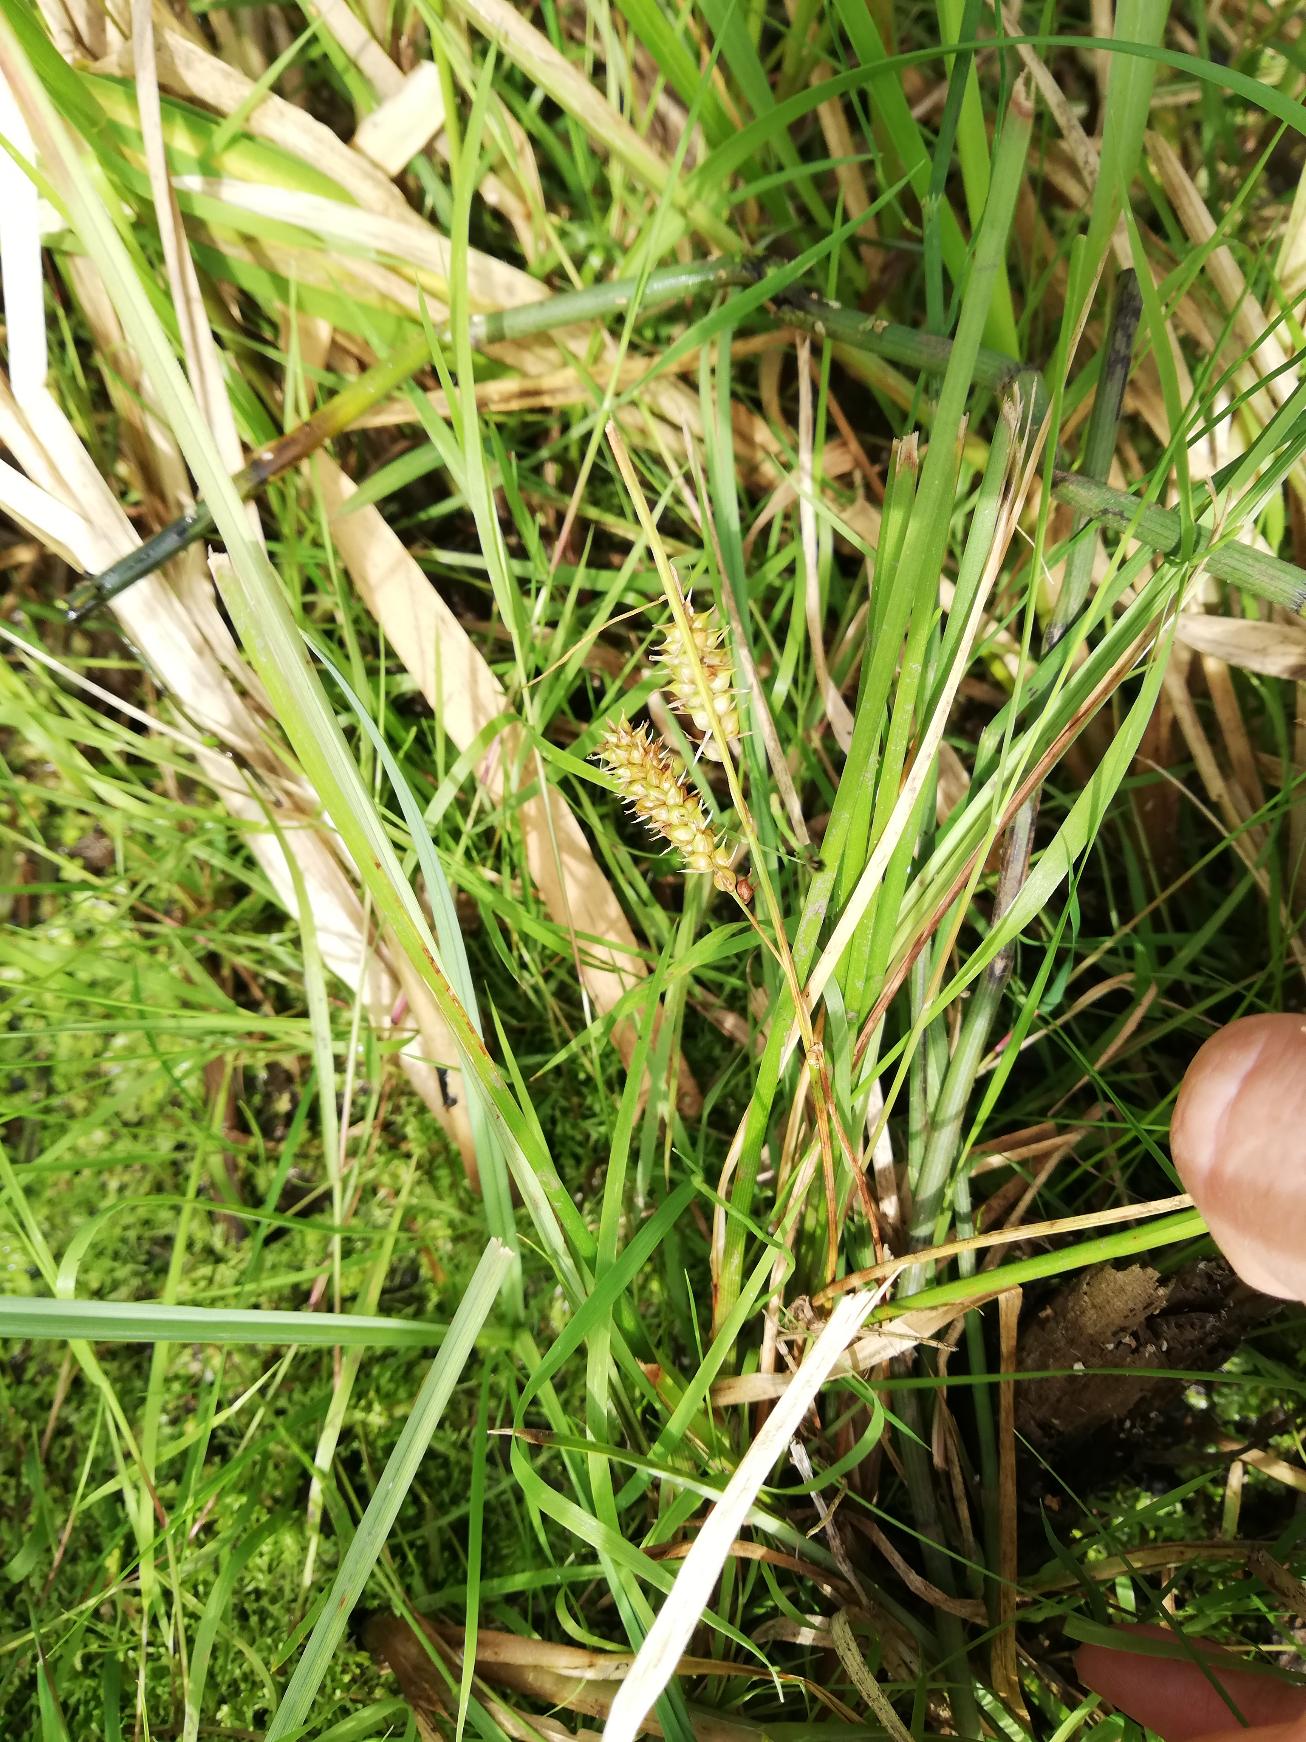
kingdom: Plantae
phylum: Tracheophyta
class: Liliopsida
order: Poales
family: Cyperaceae
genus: Carex
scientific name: Carex rostrata
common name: Næb-star
